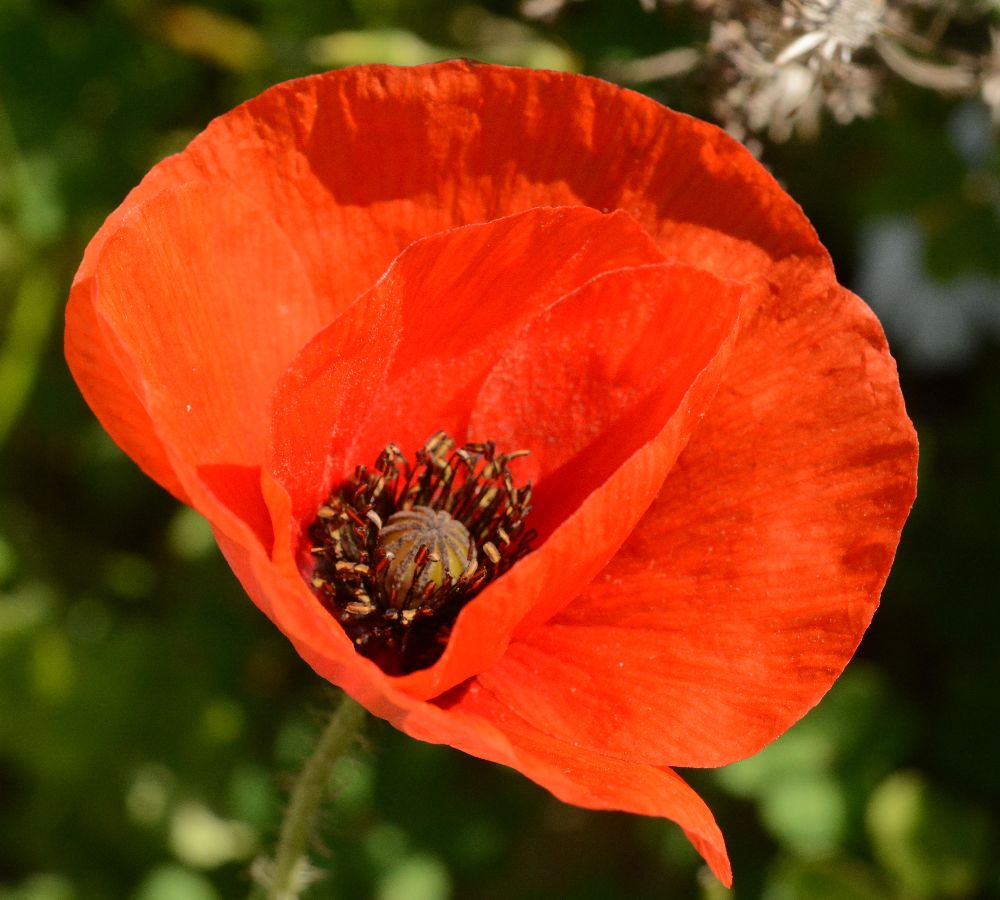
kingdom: Plantae
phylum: Tracheophyta
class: Magnoliopsida
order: Ranunculales
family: Papaveraceae
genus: Papaver
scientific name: Papaver dubium
